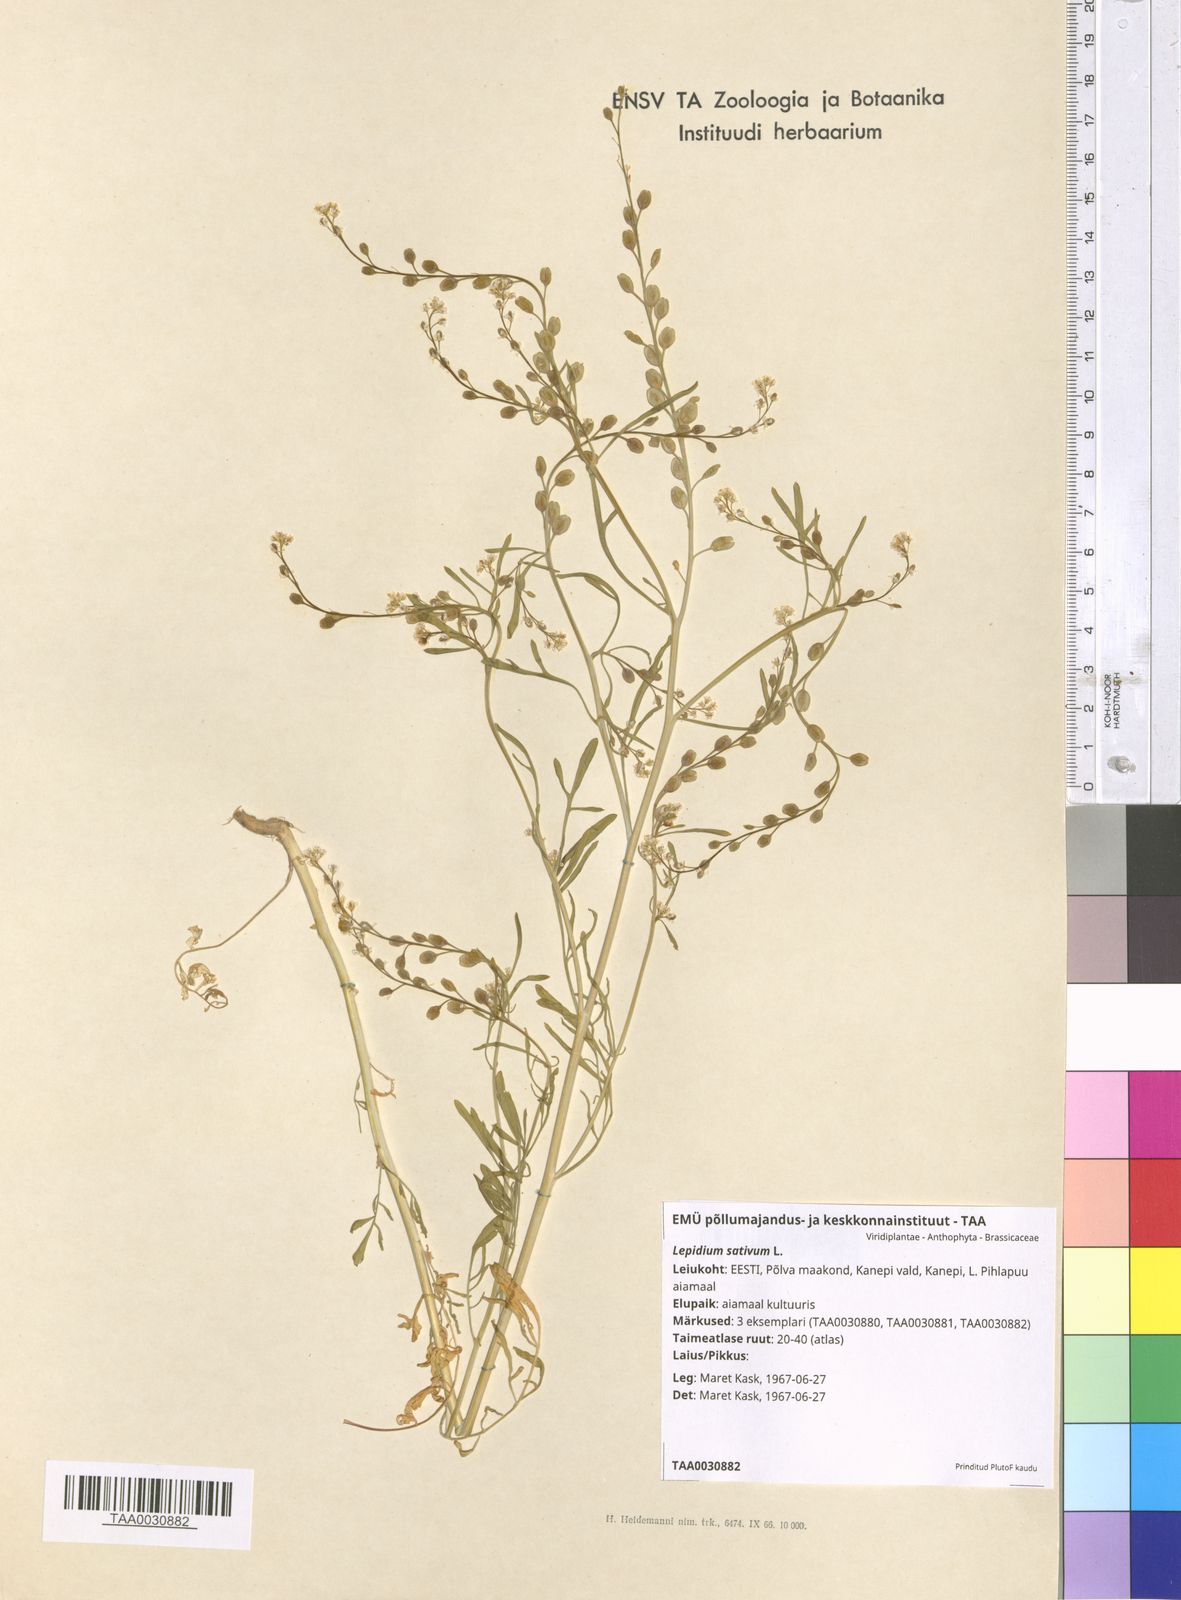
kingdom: Plantae
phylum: Tracheophyta
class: Magnoliopsida
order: Brassicales
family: Brassicaceae
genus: Lepidium
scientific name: Lepidium sativum
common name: Garden cress
